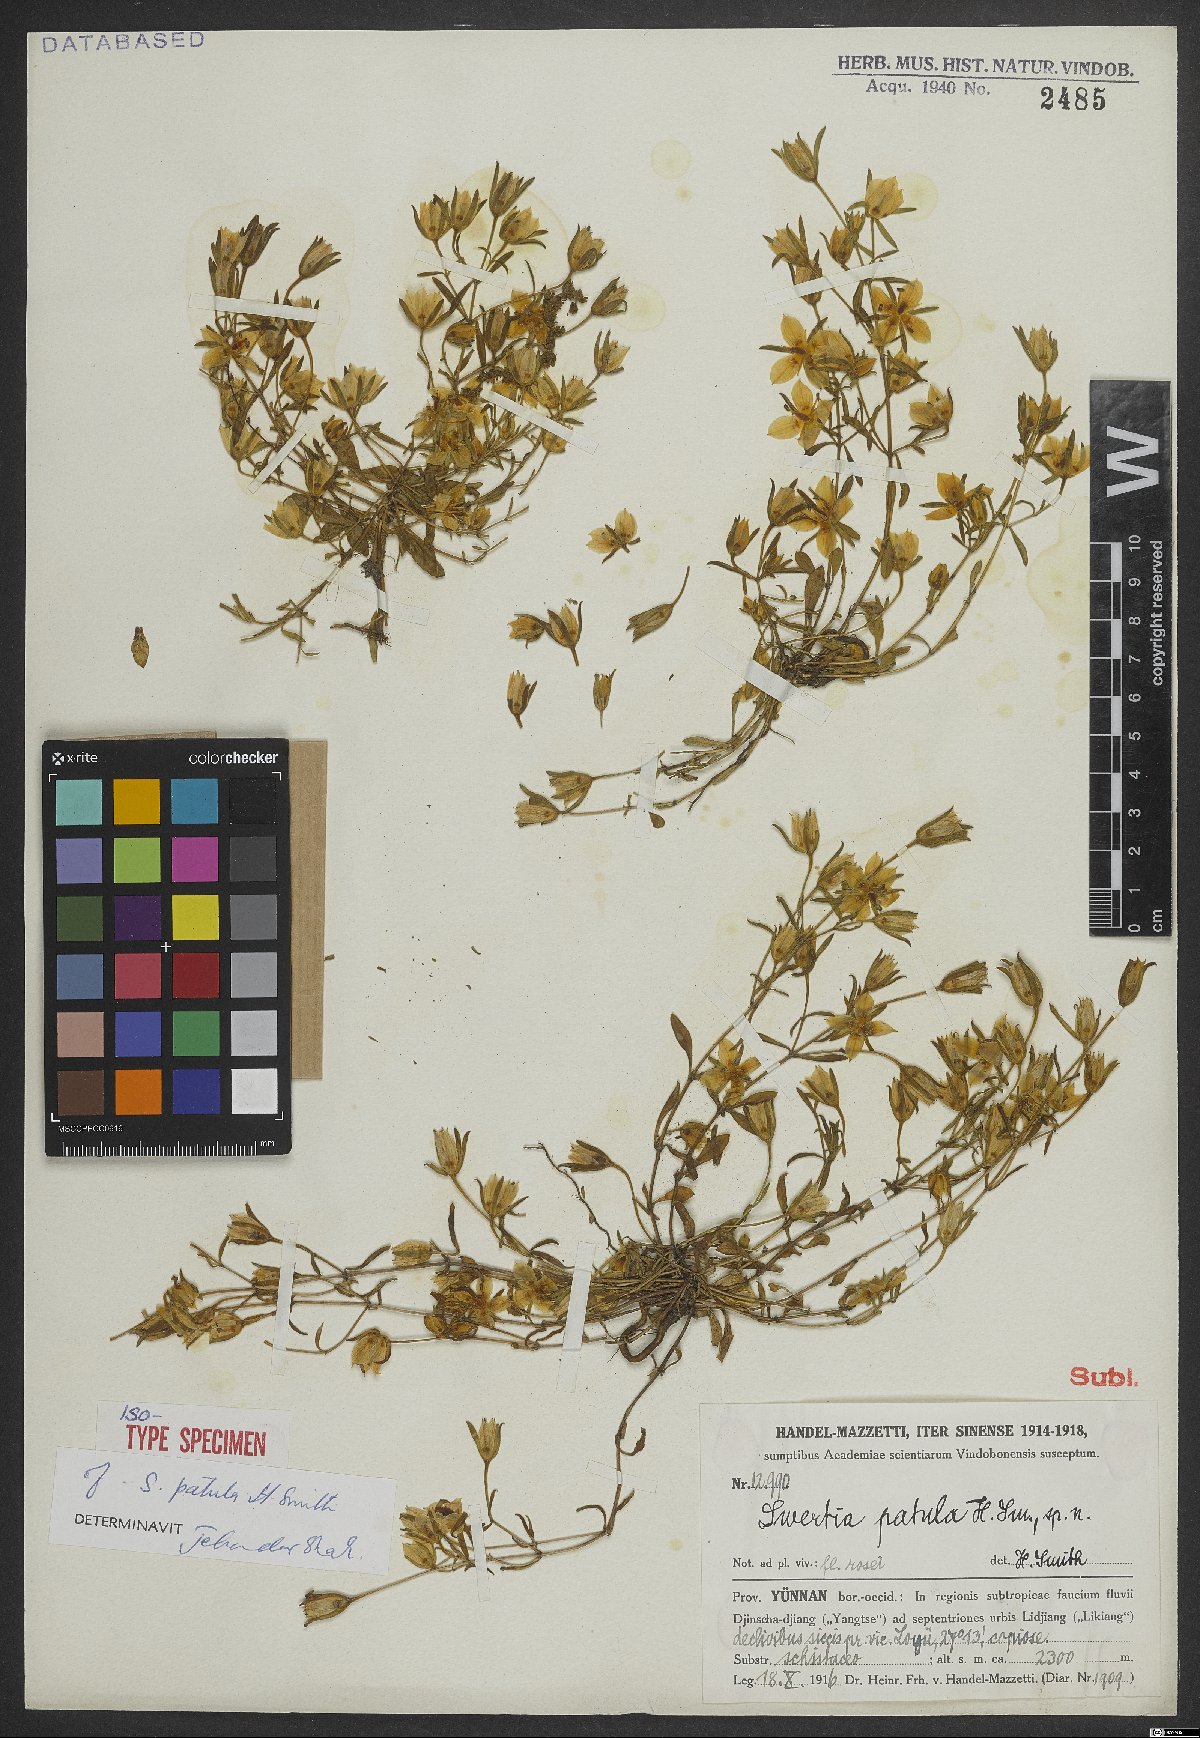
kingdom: Plantae
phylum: Tracheophyta
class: Magnoliopsida
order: Gentianales
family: Gentianaceae
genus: Swertia
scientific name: Swertia patula
